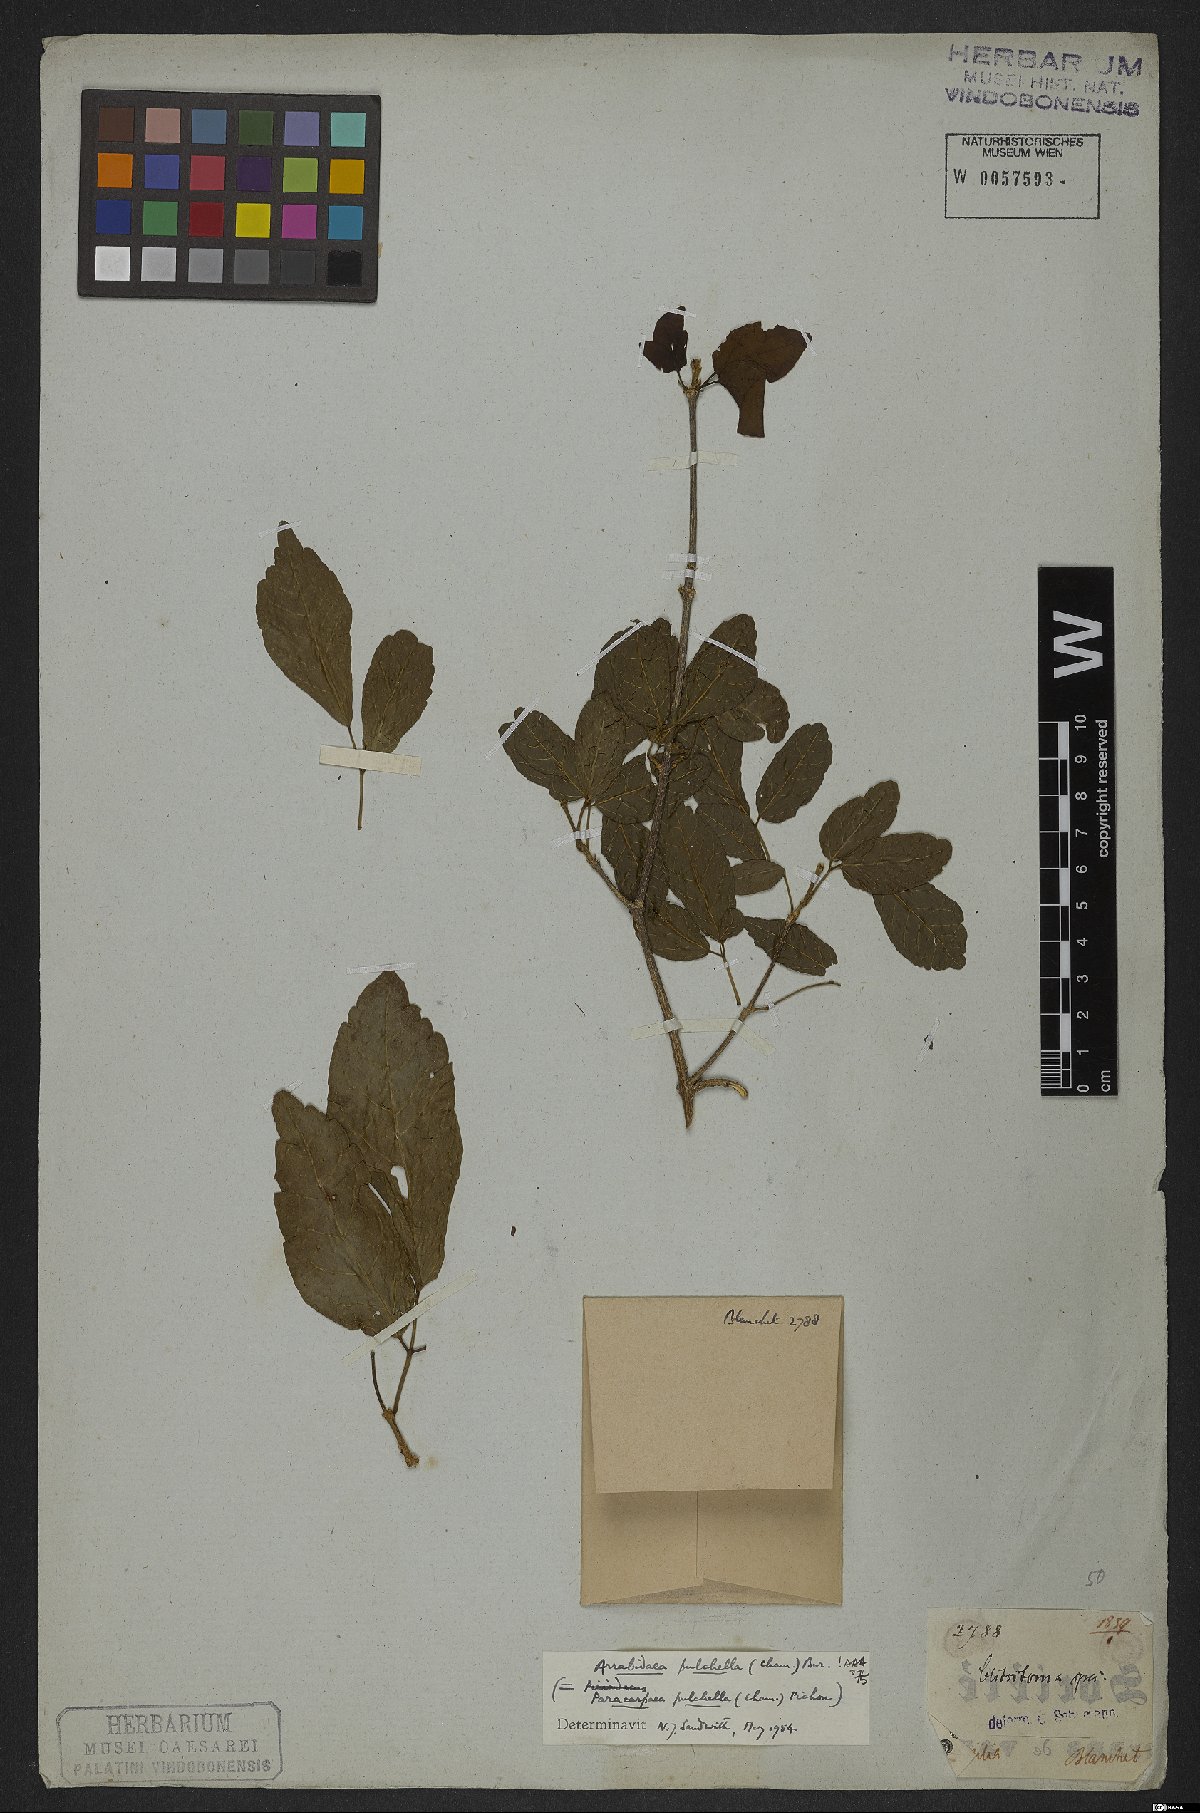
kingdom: Plantae
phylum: Tracheophyta
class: Magnoliopsida
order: Lamiales
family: Bignoniaceae
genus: Cuspidaria
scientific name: Cuspidaria pulchella
